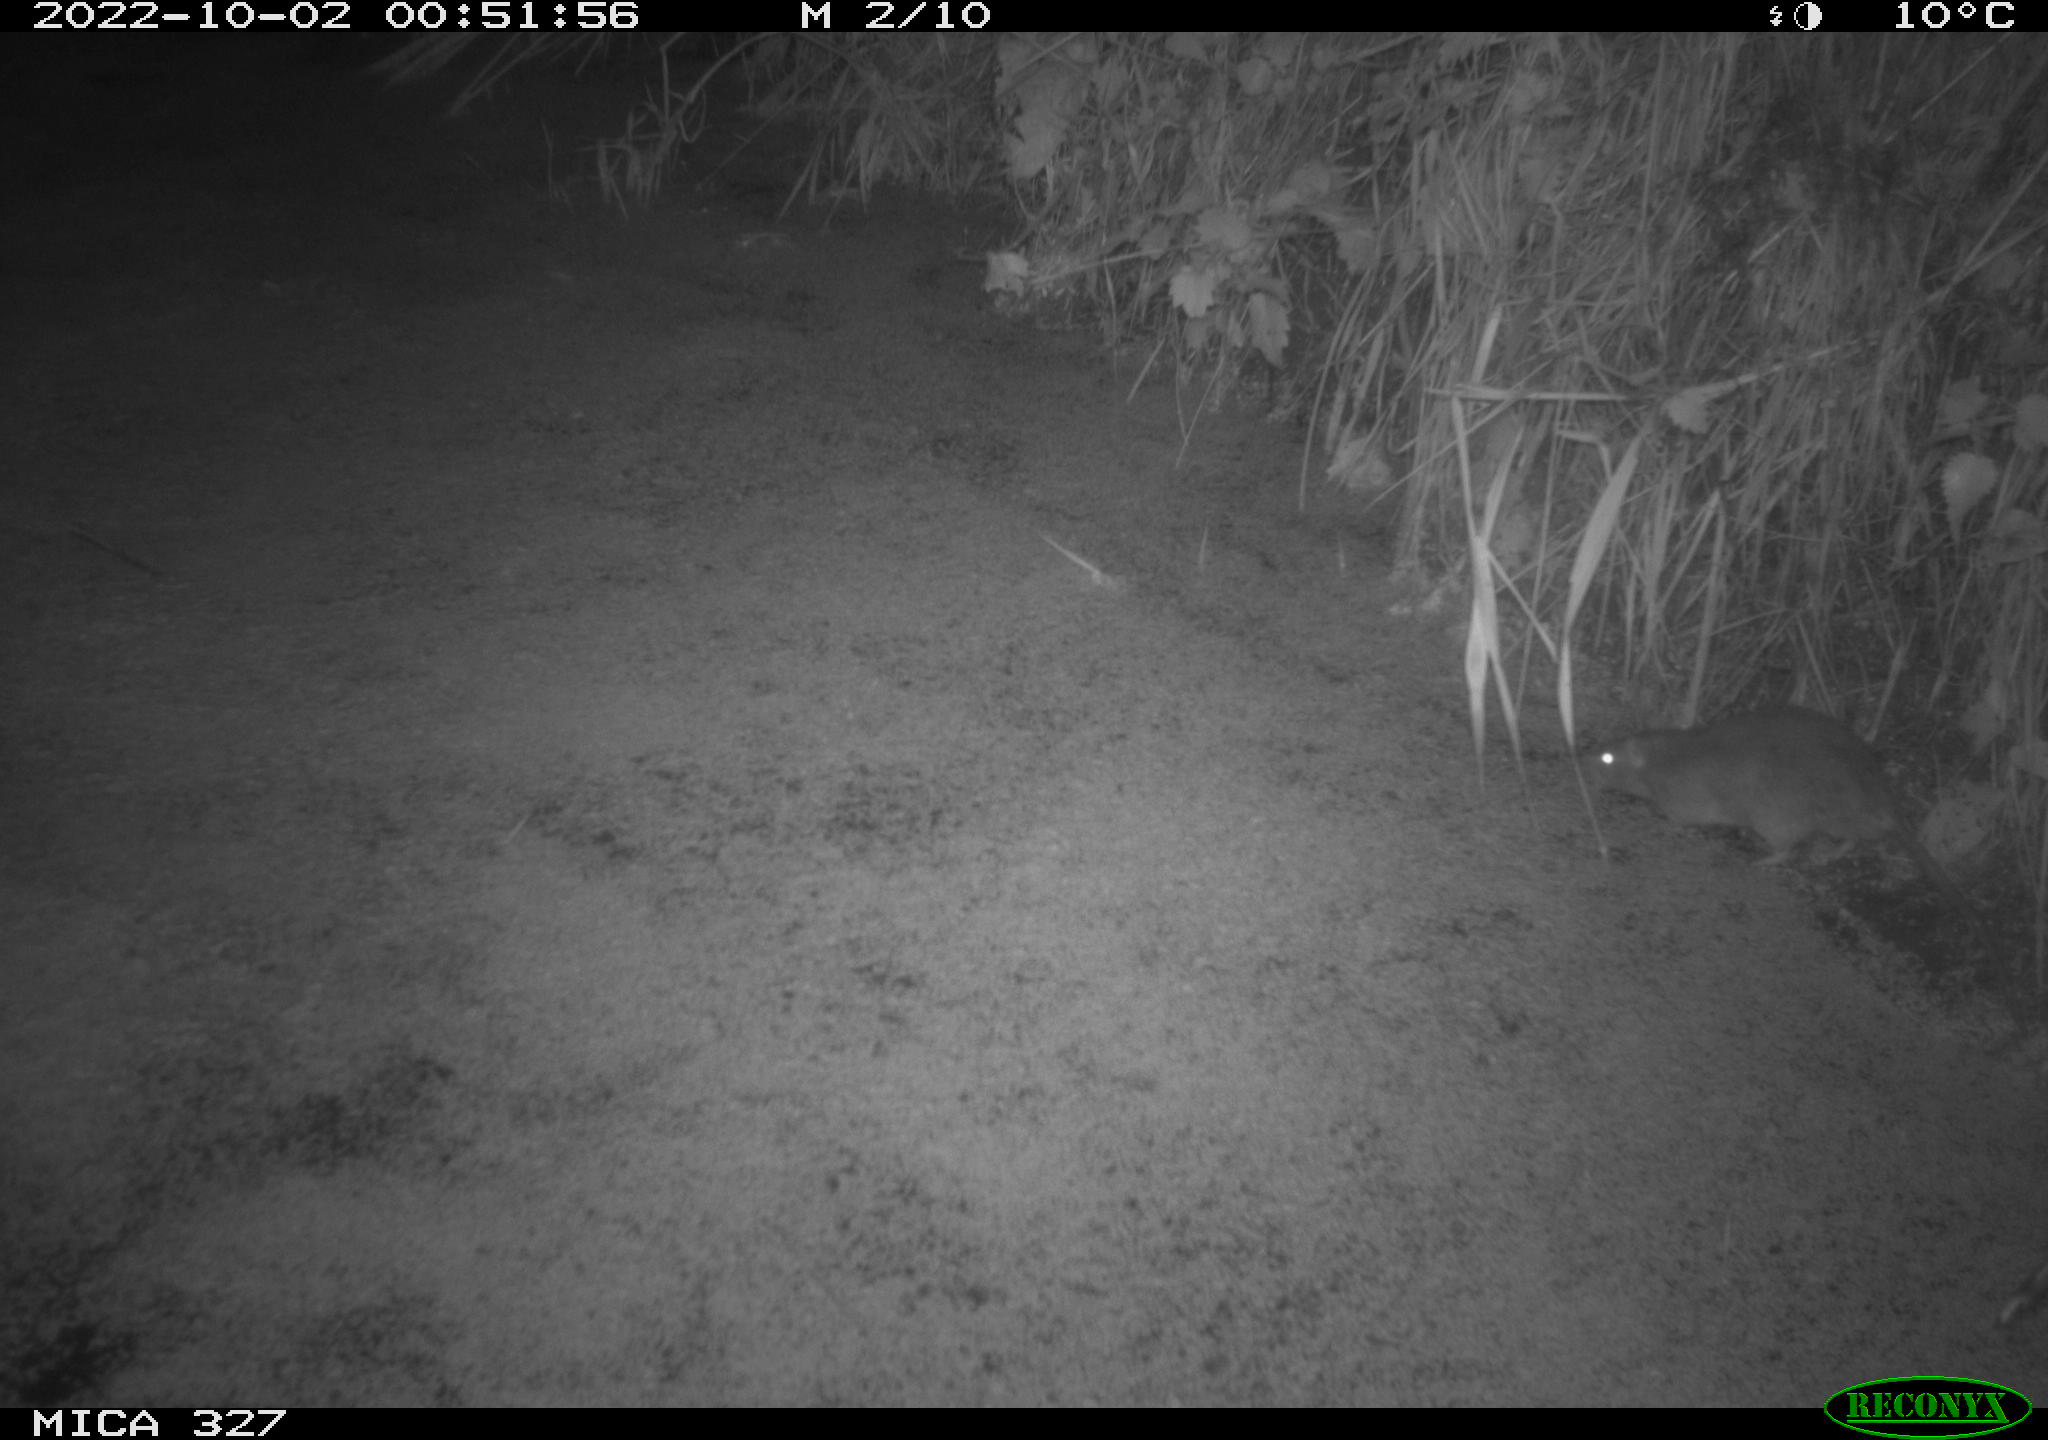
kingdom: Animalia
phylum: Chordata
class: Mammalia
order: Rodentia
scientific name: Rodentia
